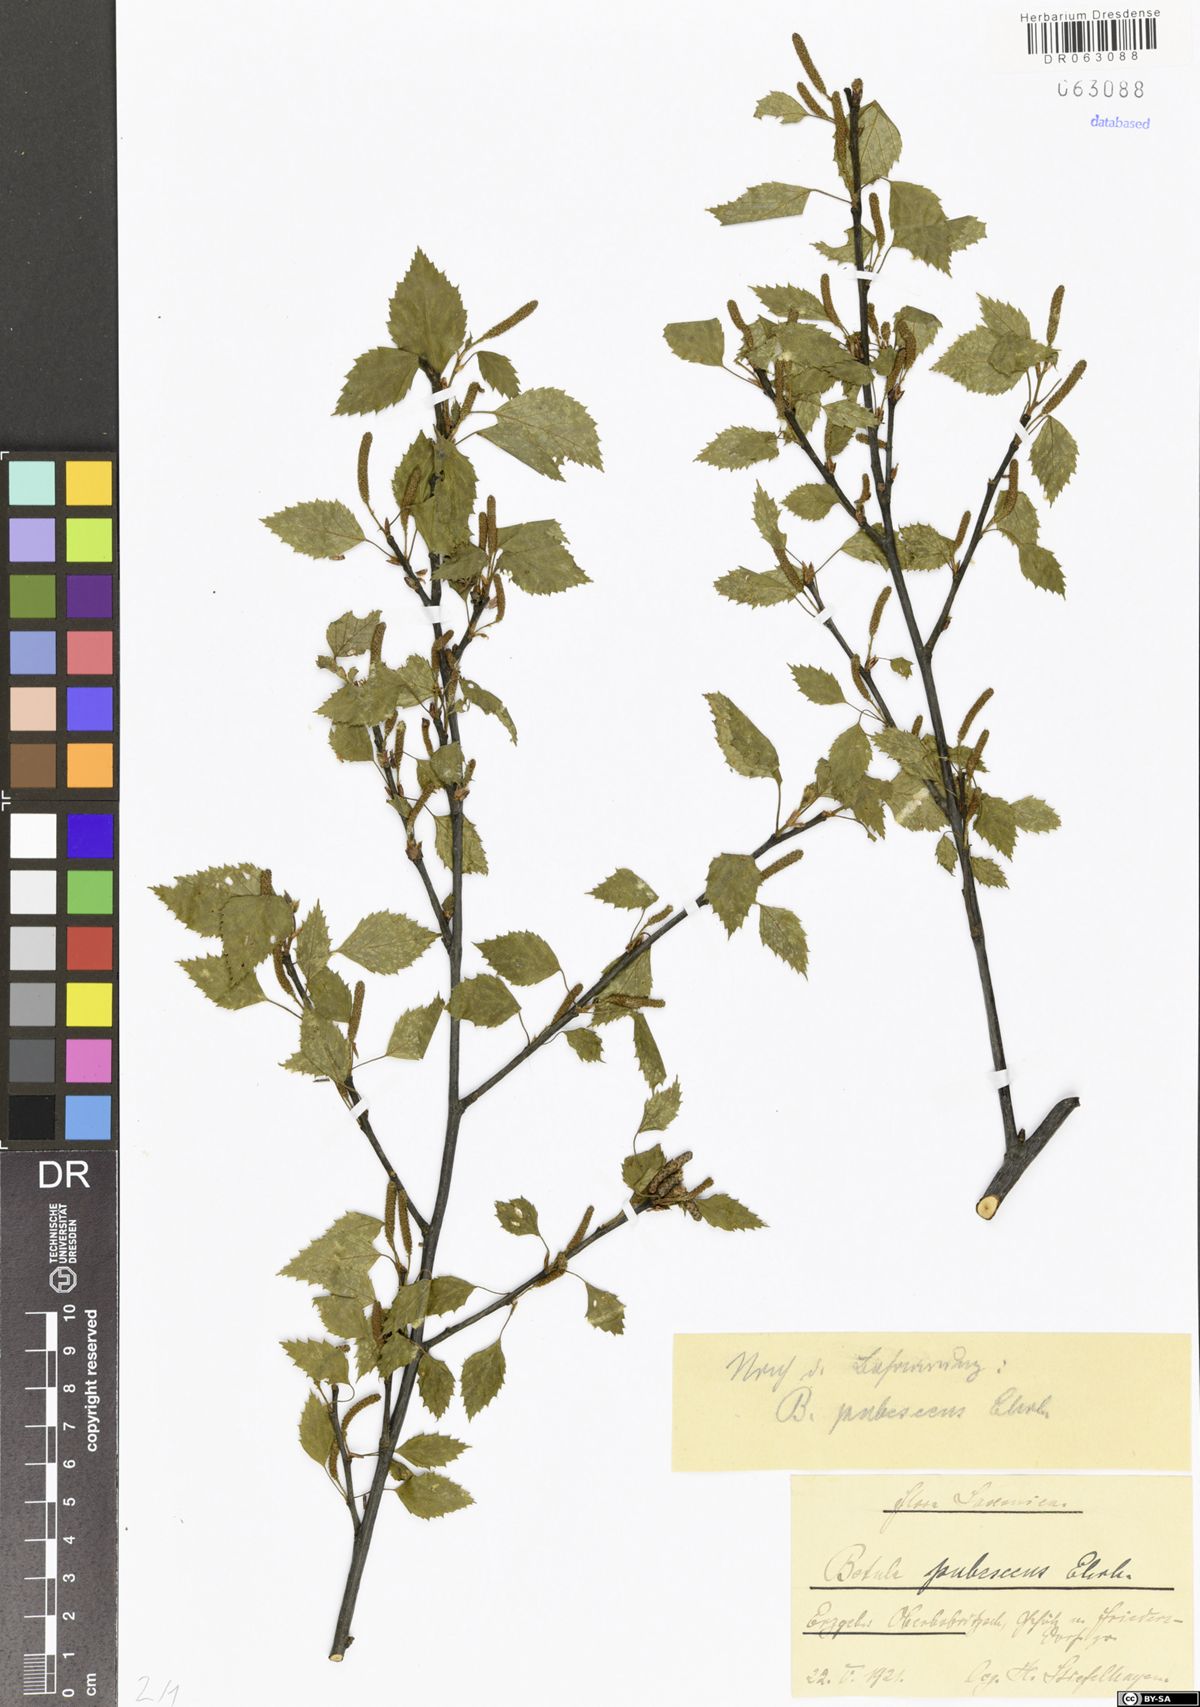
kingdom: Plantae
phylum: Tracheophyta
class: Magnoliopsida
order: Fagales
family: Betulaceae
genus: Betula
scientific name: Betula pubescens
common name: Downy birch
